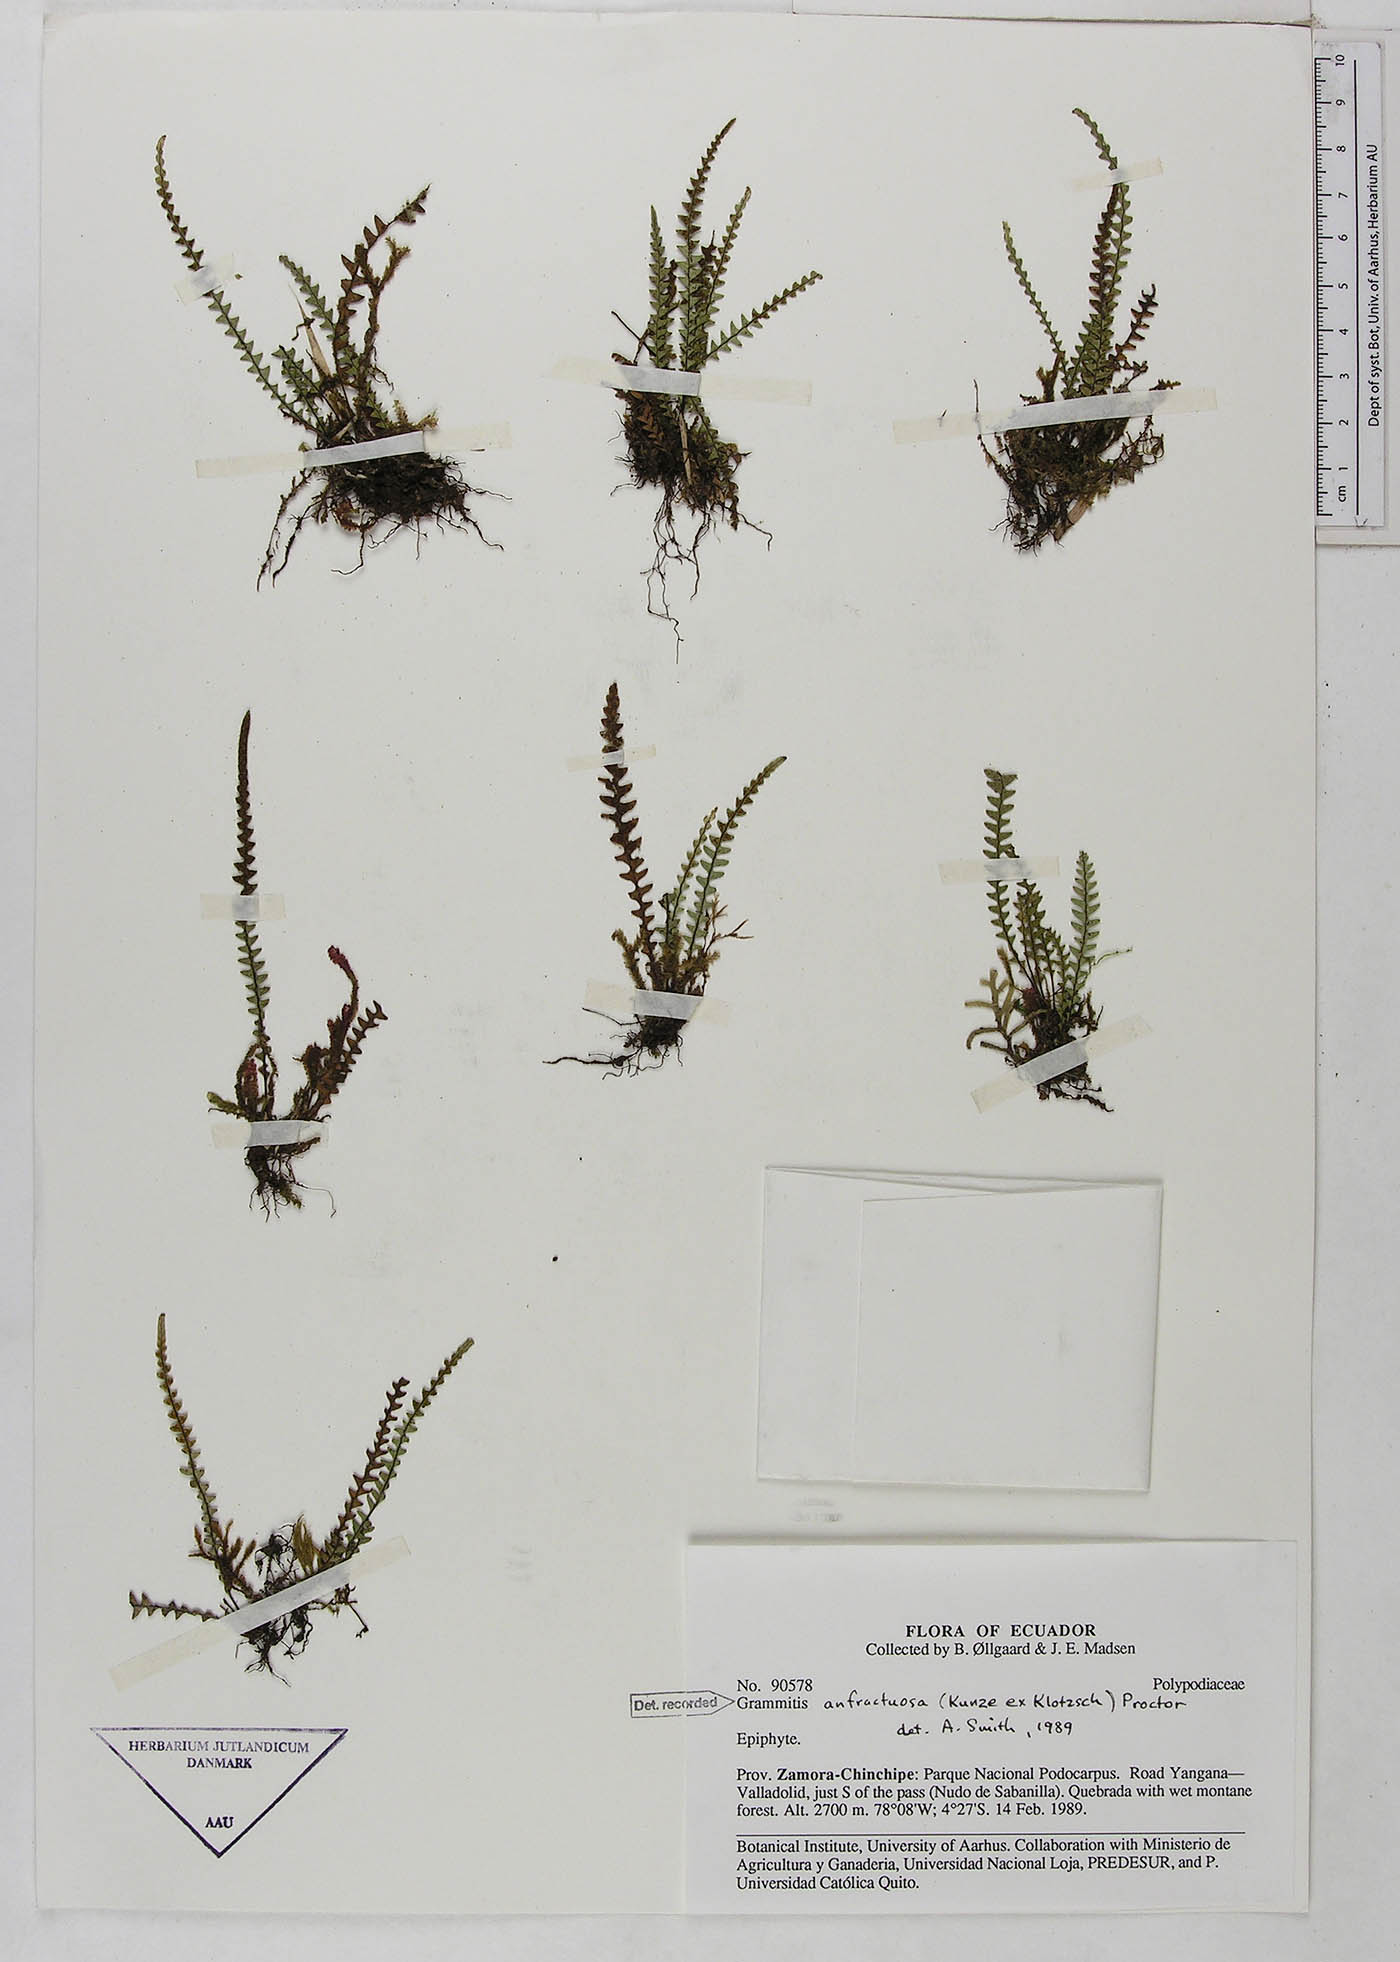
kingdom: Plantae
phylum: Tracheophyta
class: Polypodiopsida
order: Polypodiales
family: Polypodiaceae
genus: Ascogrammitis
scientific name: Ascogrammitis anfractuosa
